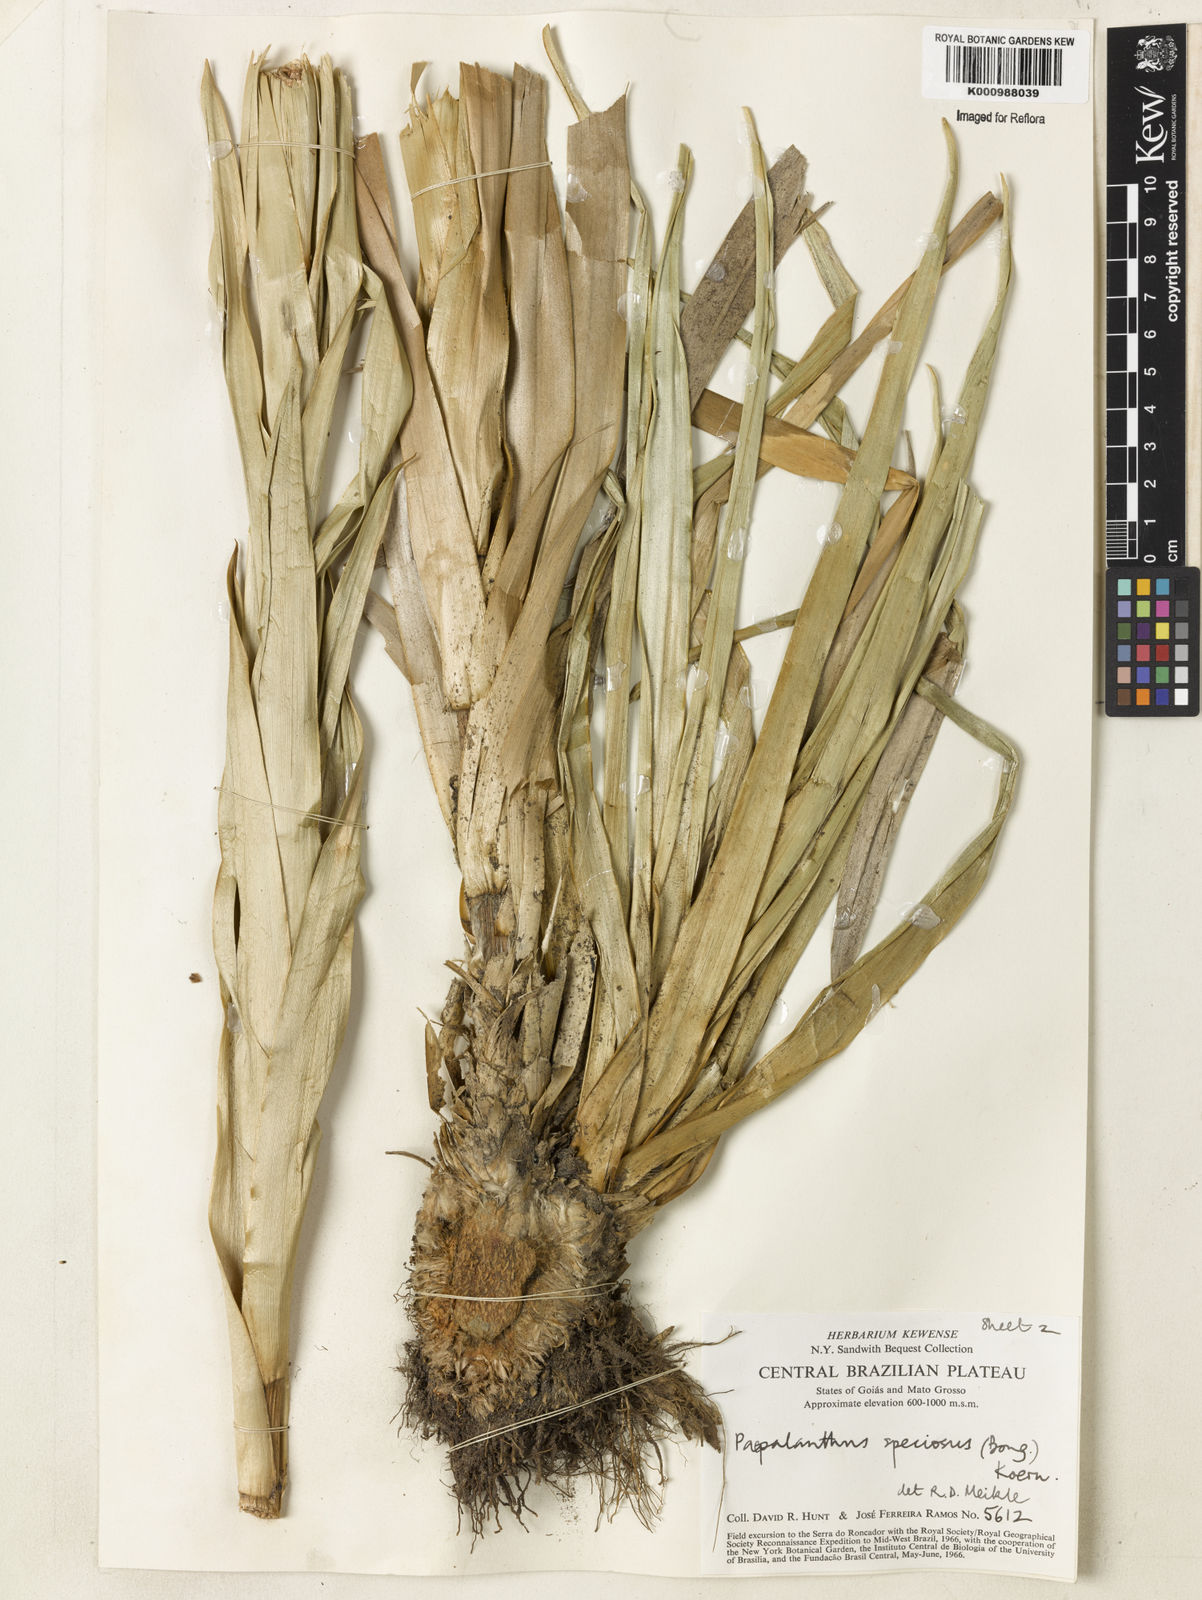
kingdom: Plantae
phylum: Tracheophyta
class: Liliopsida
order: Poales
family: Eriocaulaceae
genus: Paepalanthus
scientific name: Paepalanthus
